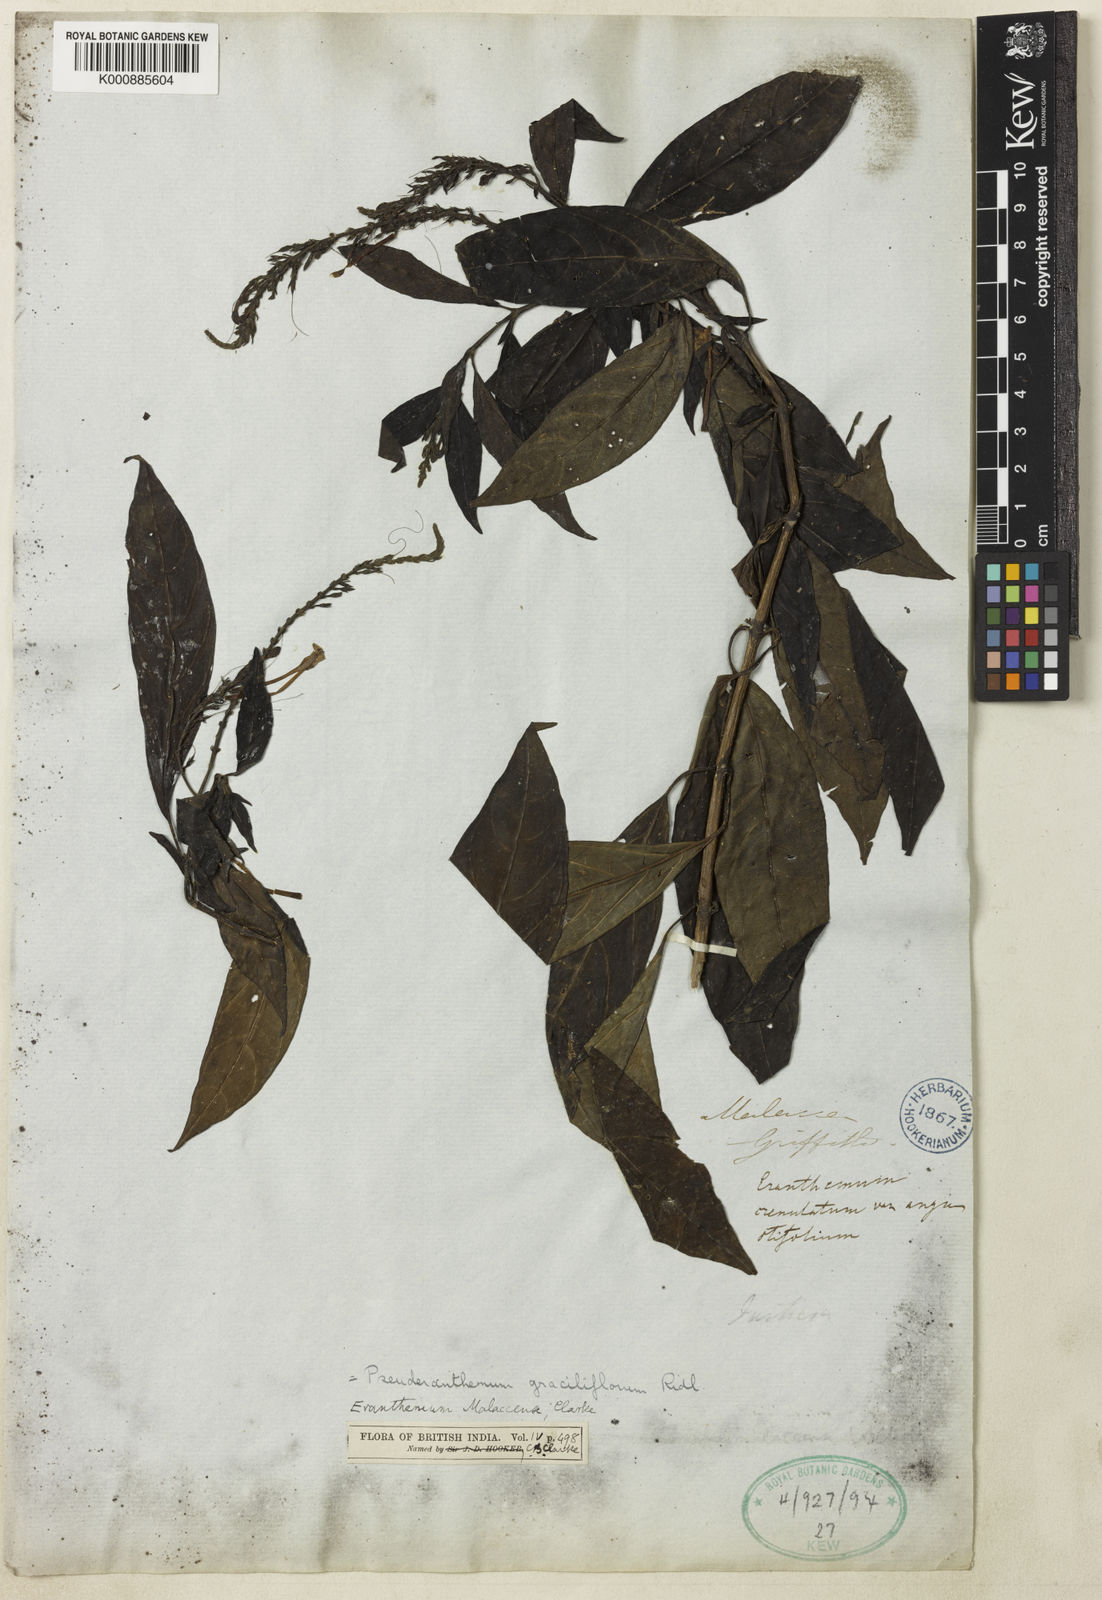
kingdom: Plantae
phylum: Tracheophyta
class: Magnoliopsida
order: Lamiales
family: Acanthaceae
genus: Pseuderanthemum
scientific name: Pseuderanthemum graciliflorum
